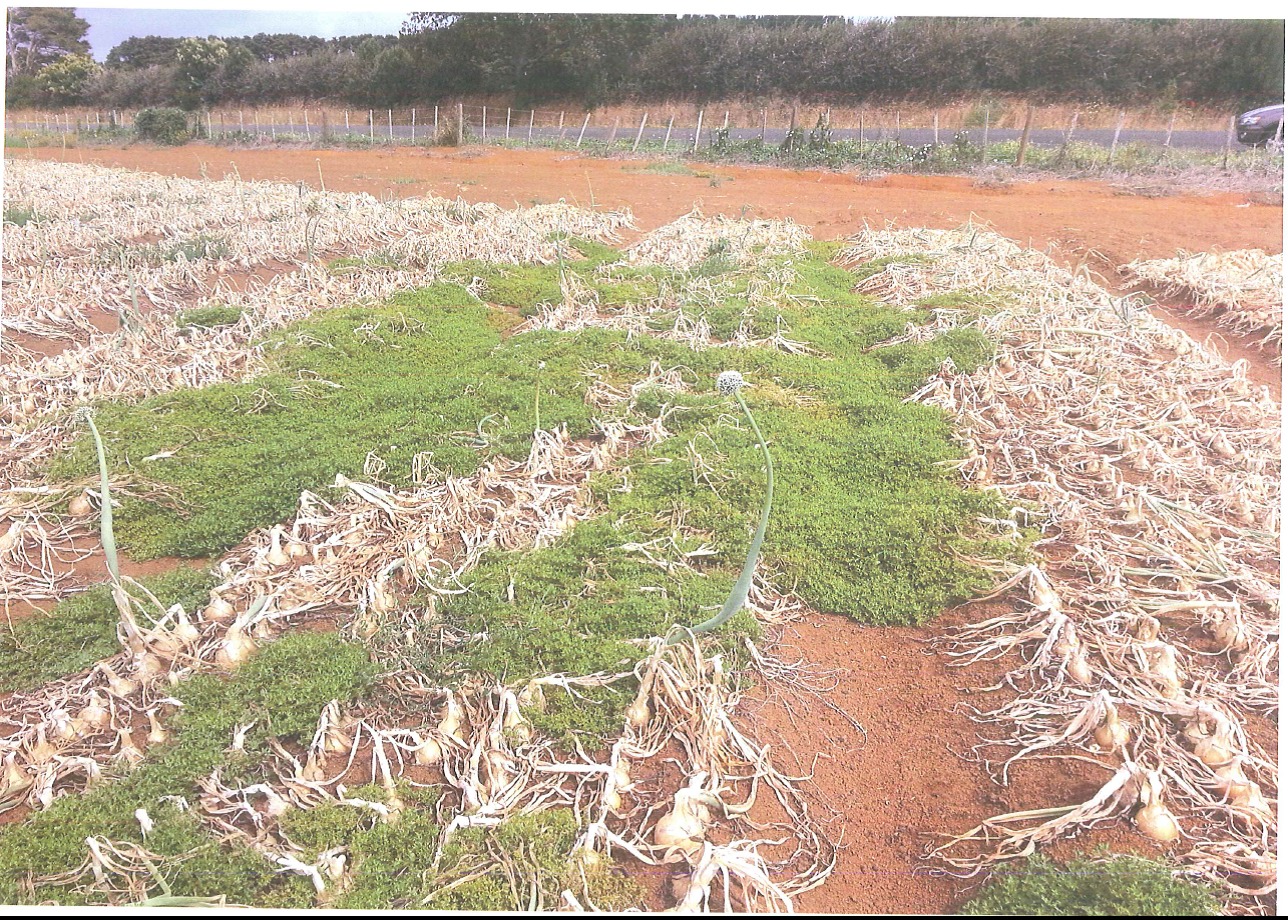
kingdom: Plantae
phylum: Tracheophyta
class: Magnoliopsida
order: Fabales
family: Fabaceae
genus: Trifolium
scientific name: Trifolium campestre
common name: Field clover
